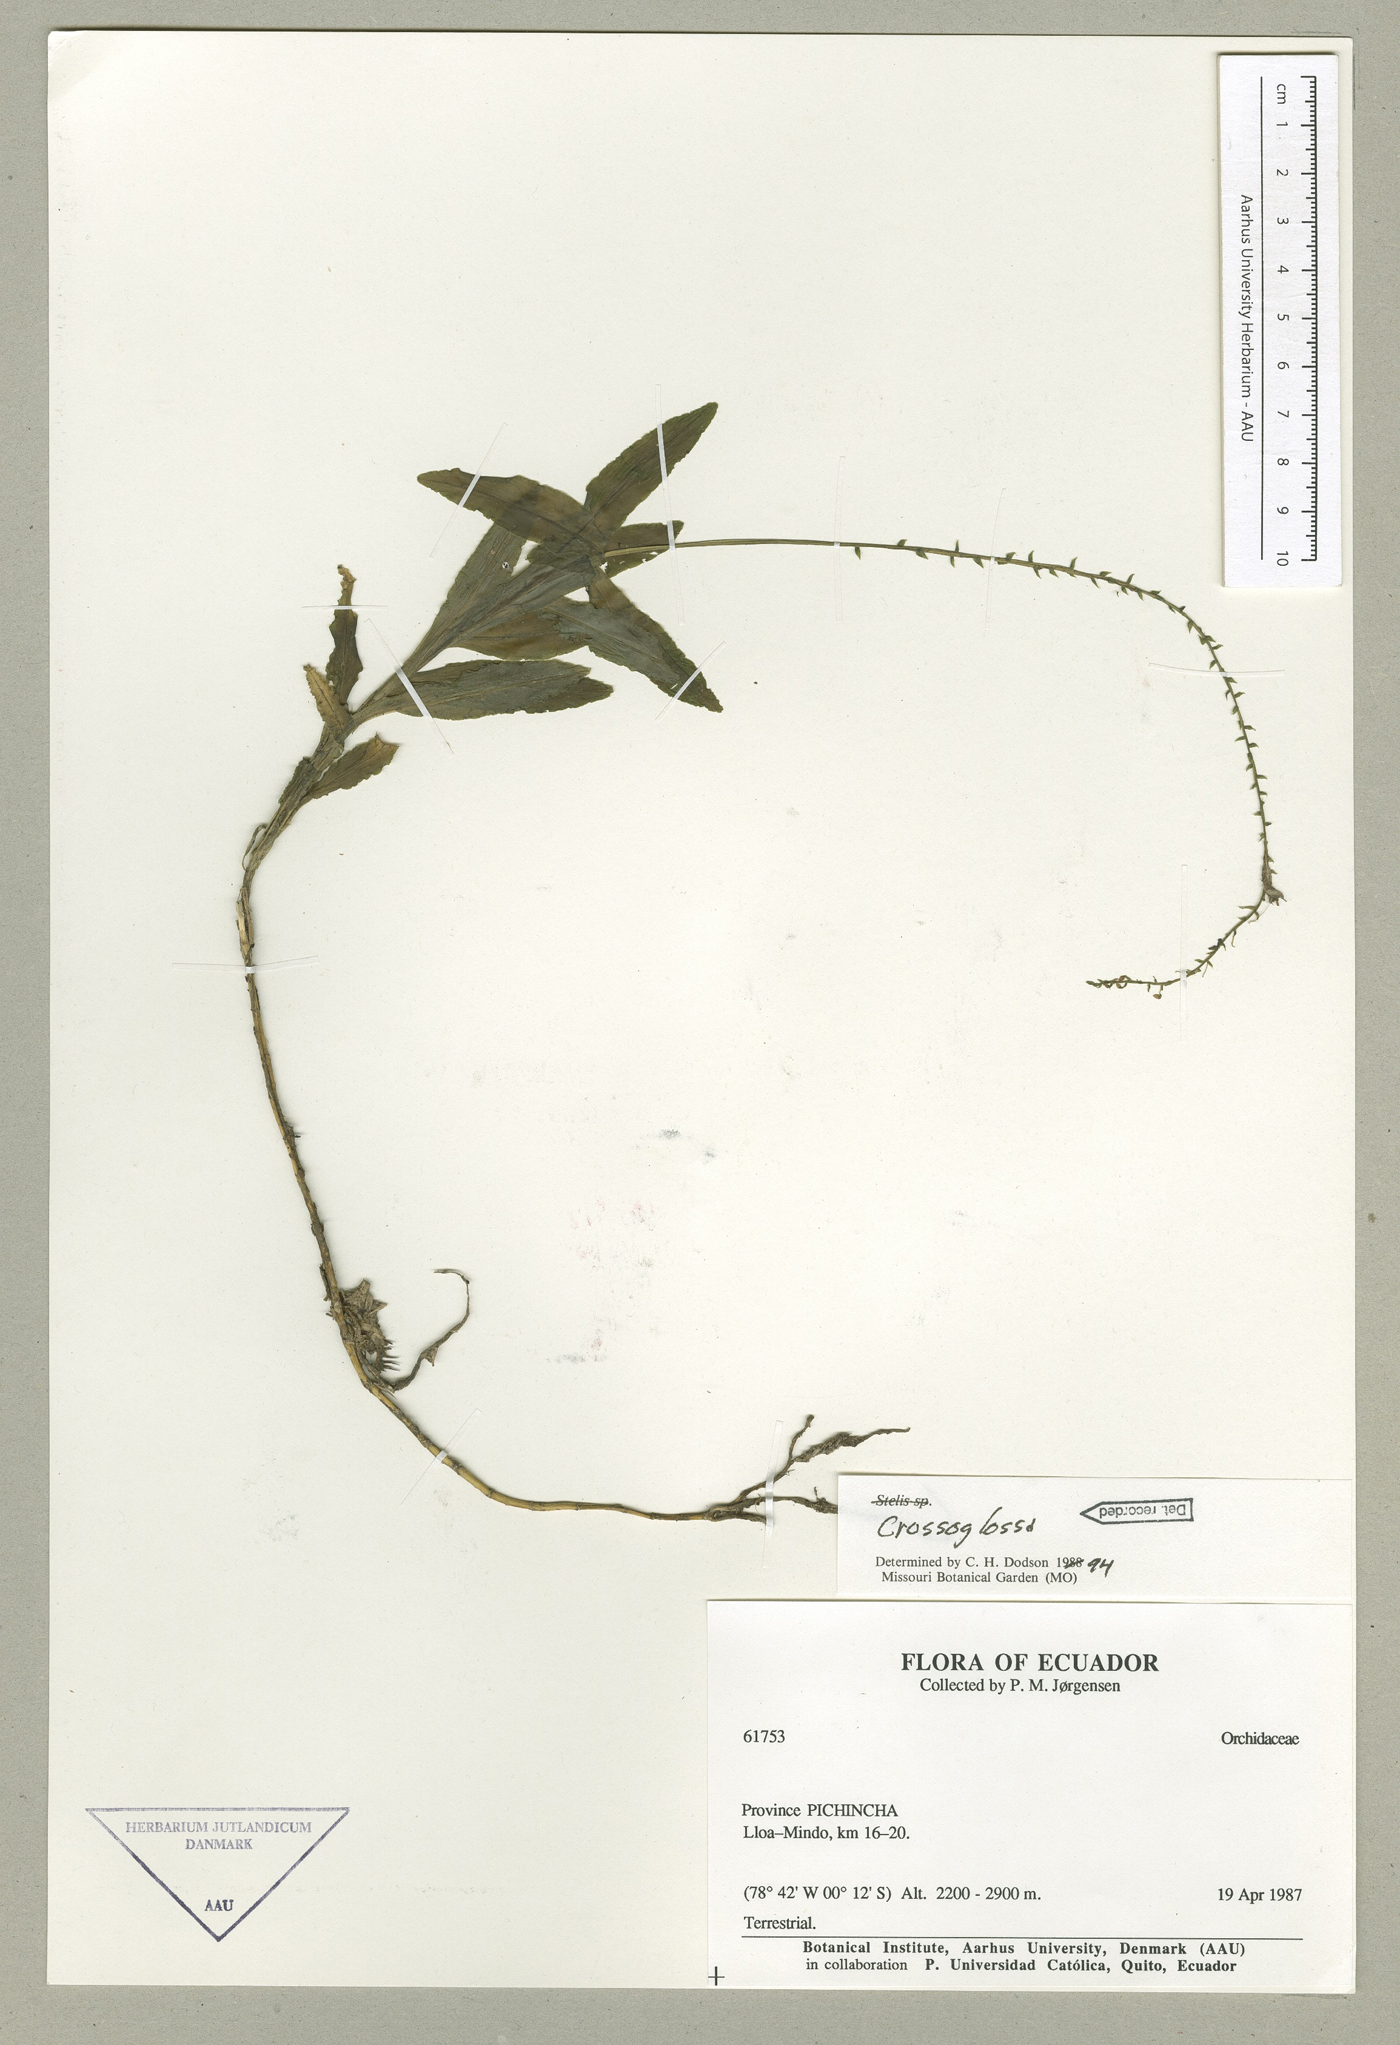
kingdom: Plantae
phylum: Tracheophyta
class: Liliopsida
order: Asparagales
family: Orchidaceae
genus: Crossoglossa
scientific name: Crossoglossa
